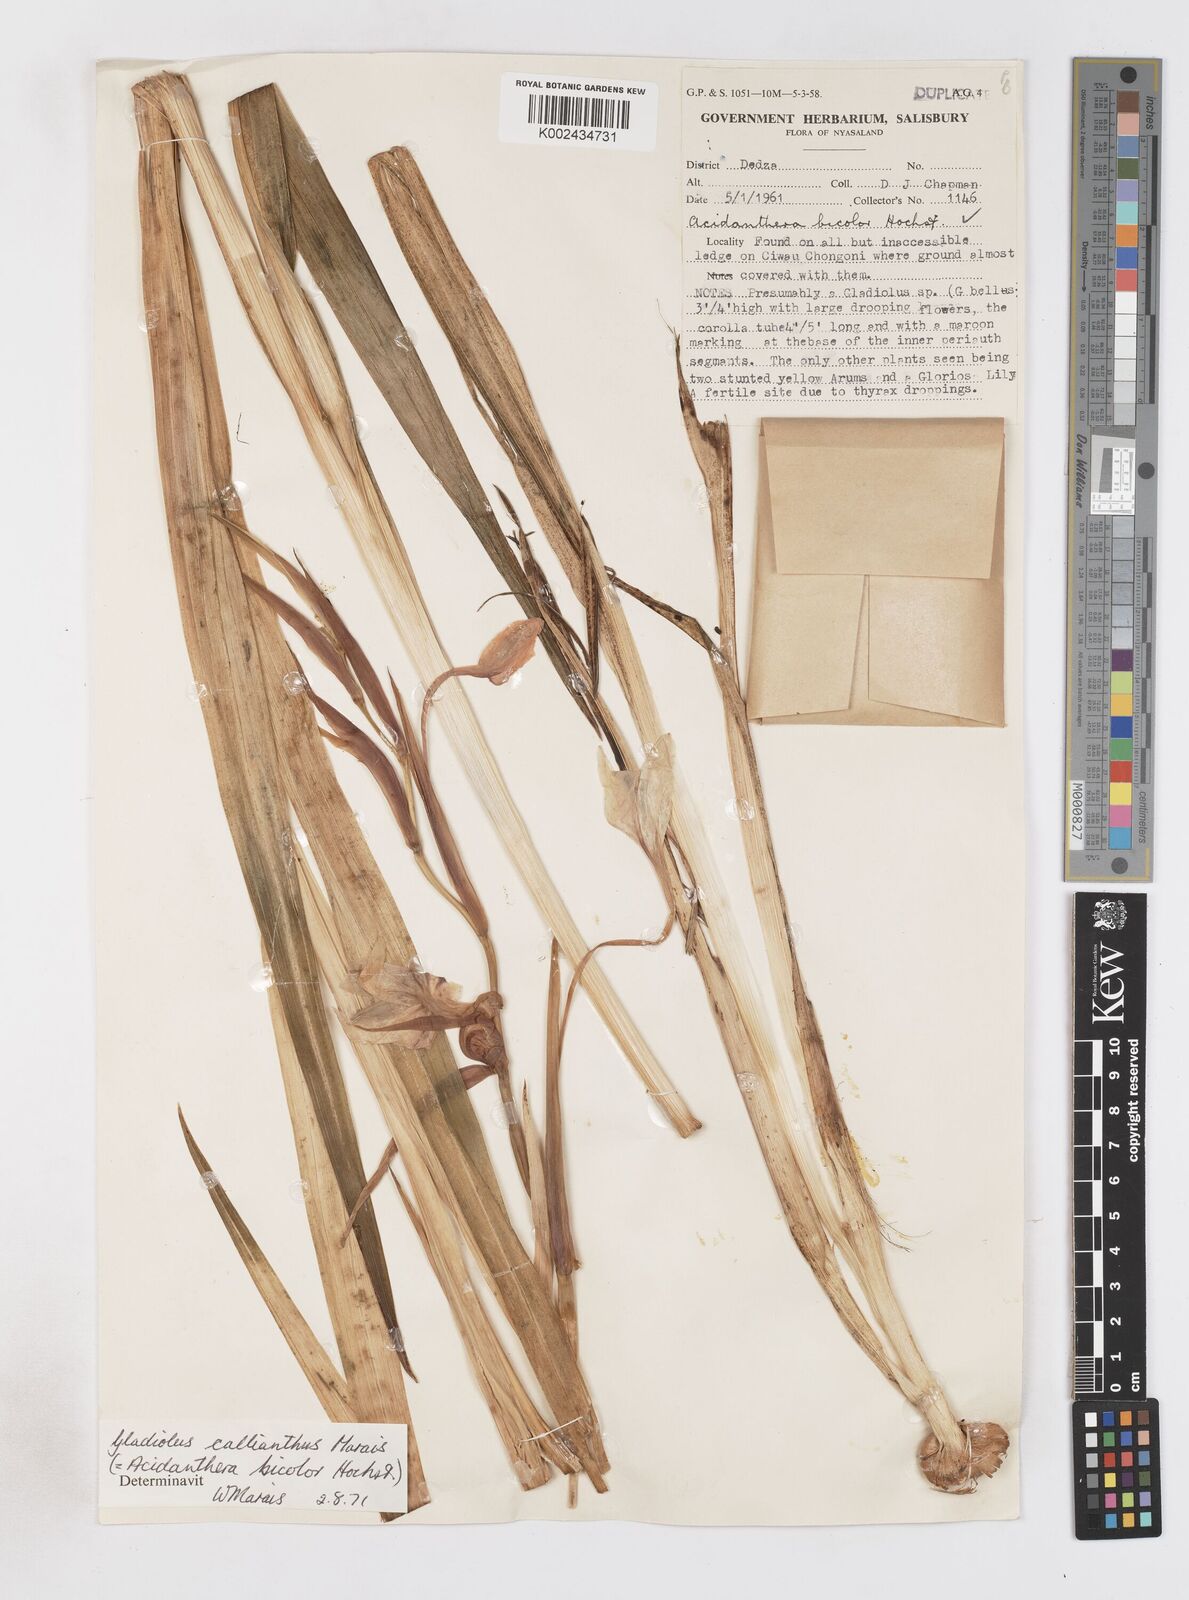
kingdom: Plantae
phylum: Tracheophyta
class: Liliopsida
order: Asparagales
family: Iridaceae
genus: Gladiolus
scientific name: Gladiolus murielae
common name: Acidanthera
